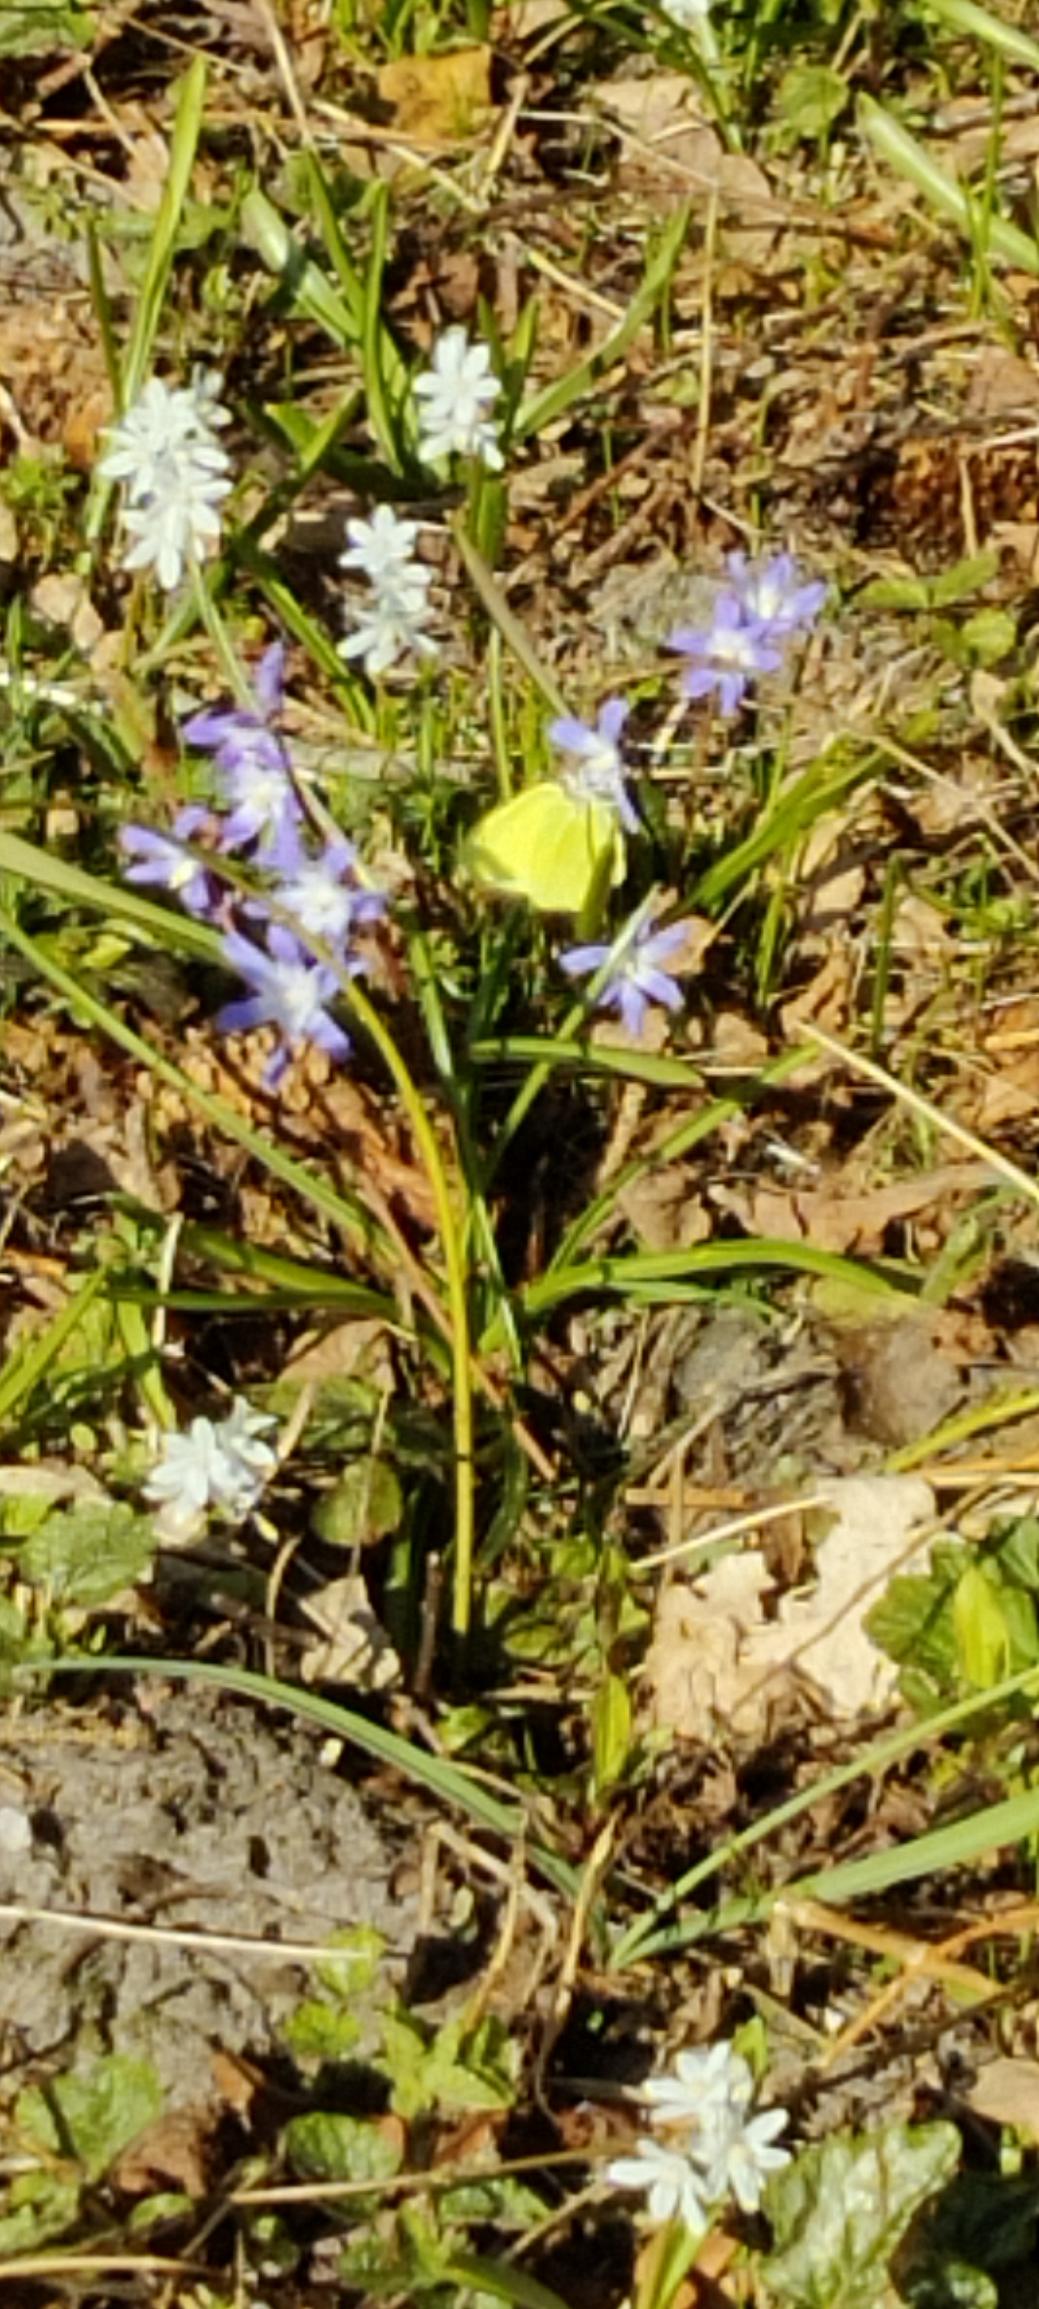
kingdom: Animalia
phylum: Arthropoda
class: Insecta
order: Lepidoptera
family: Pieridae
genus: Gonepteryx
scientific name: Gonepteryx rhamni
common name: Citronsommerfugl
